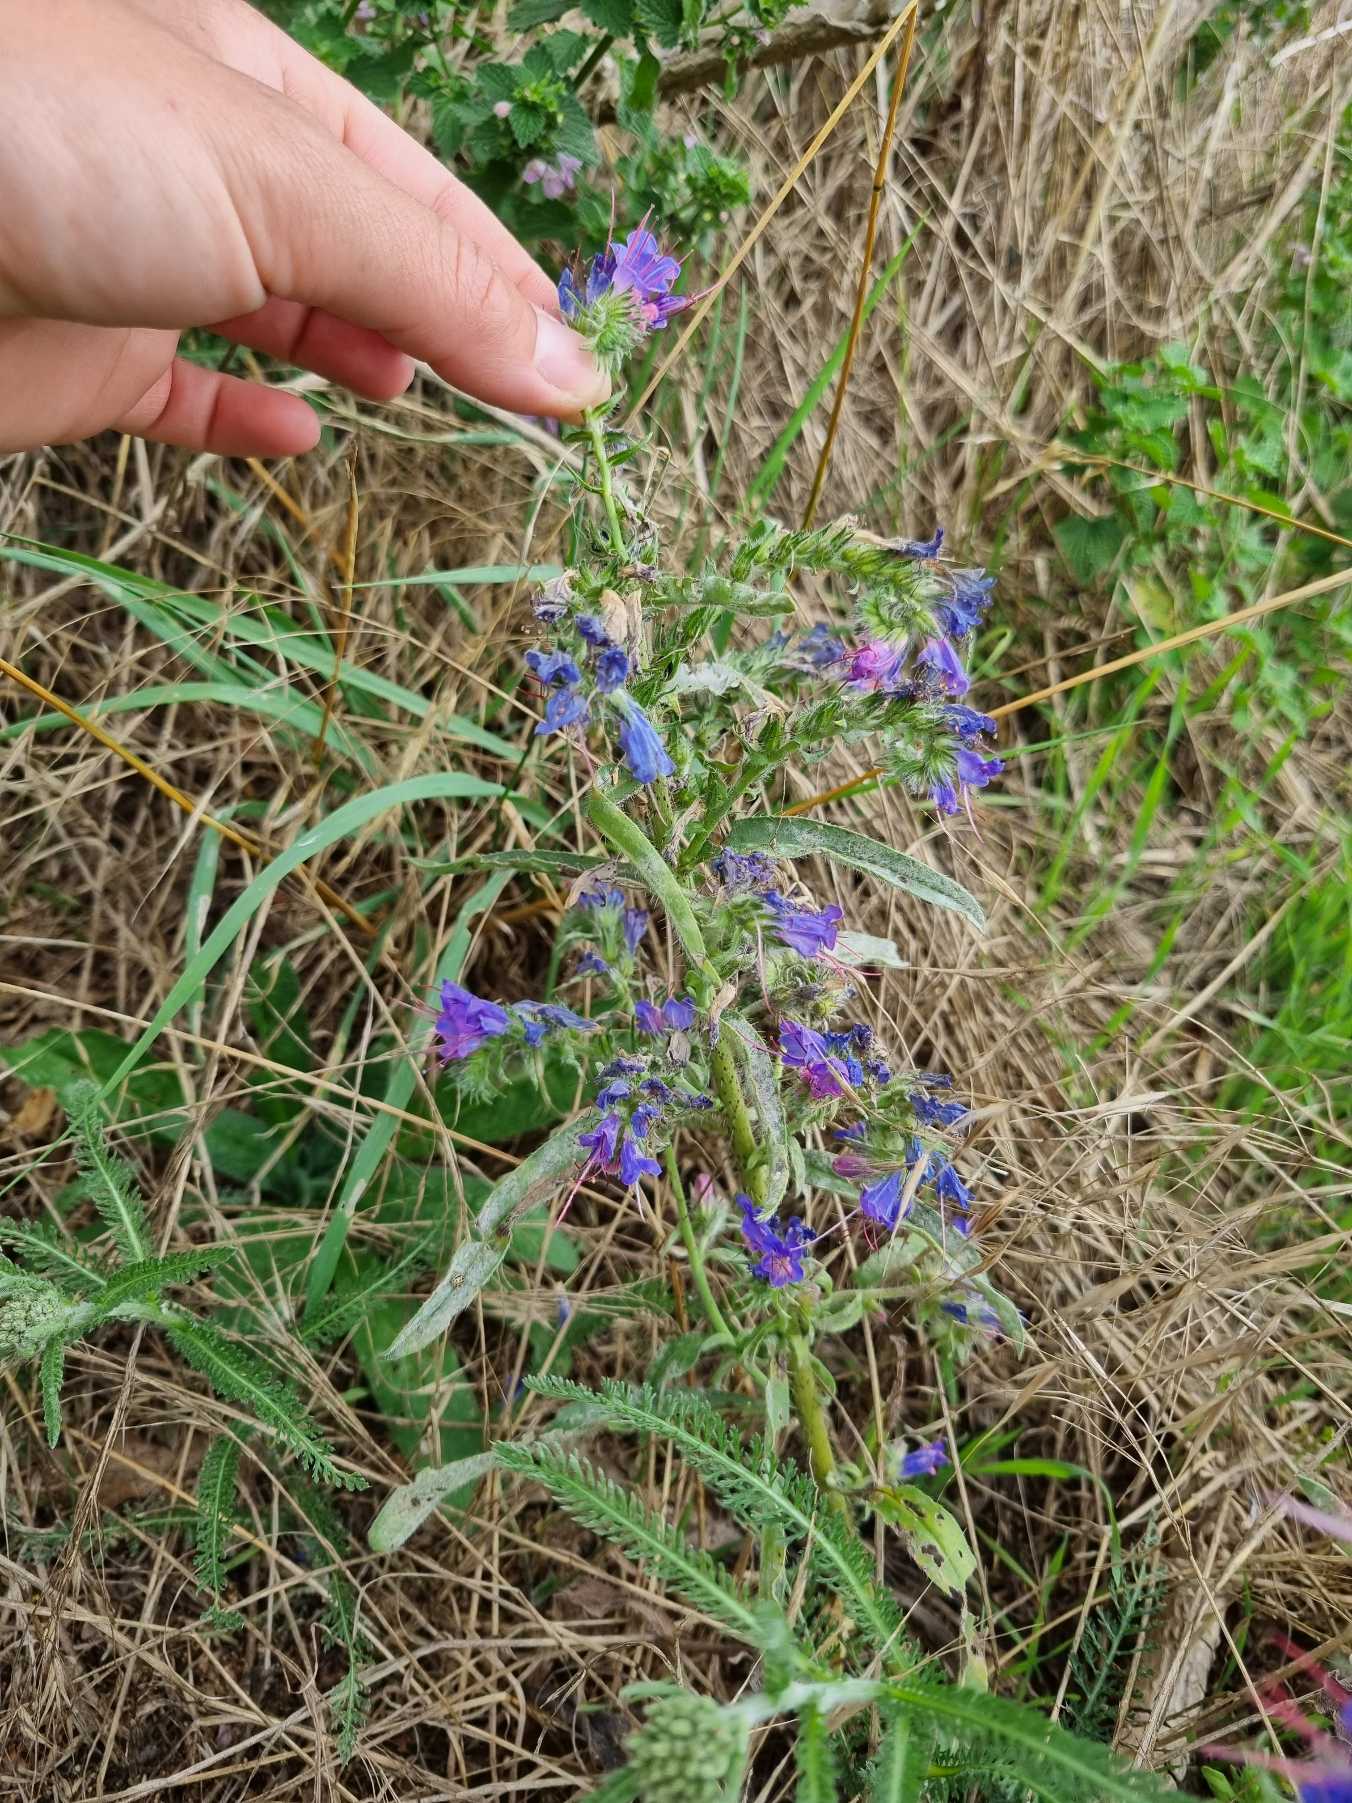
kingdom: Plantae
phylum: Tracheophyta
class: Magnoliopsida
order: Boraginales
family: Boraginaceae
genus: Echium
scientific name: Echium vulgare
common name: Slangehoved
